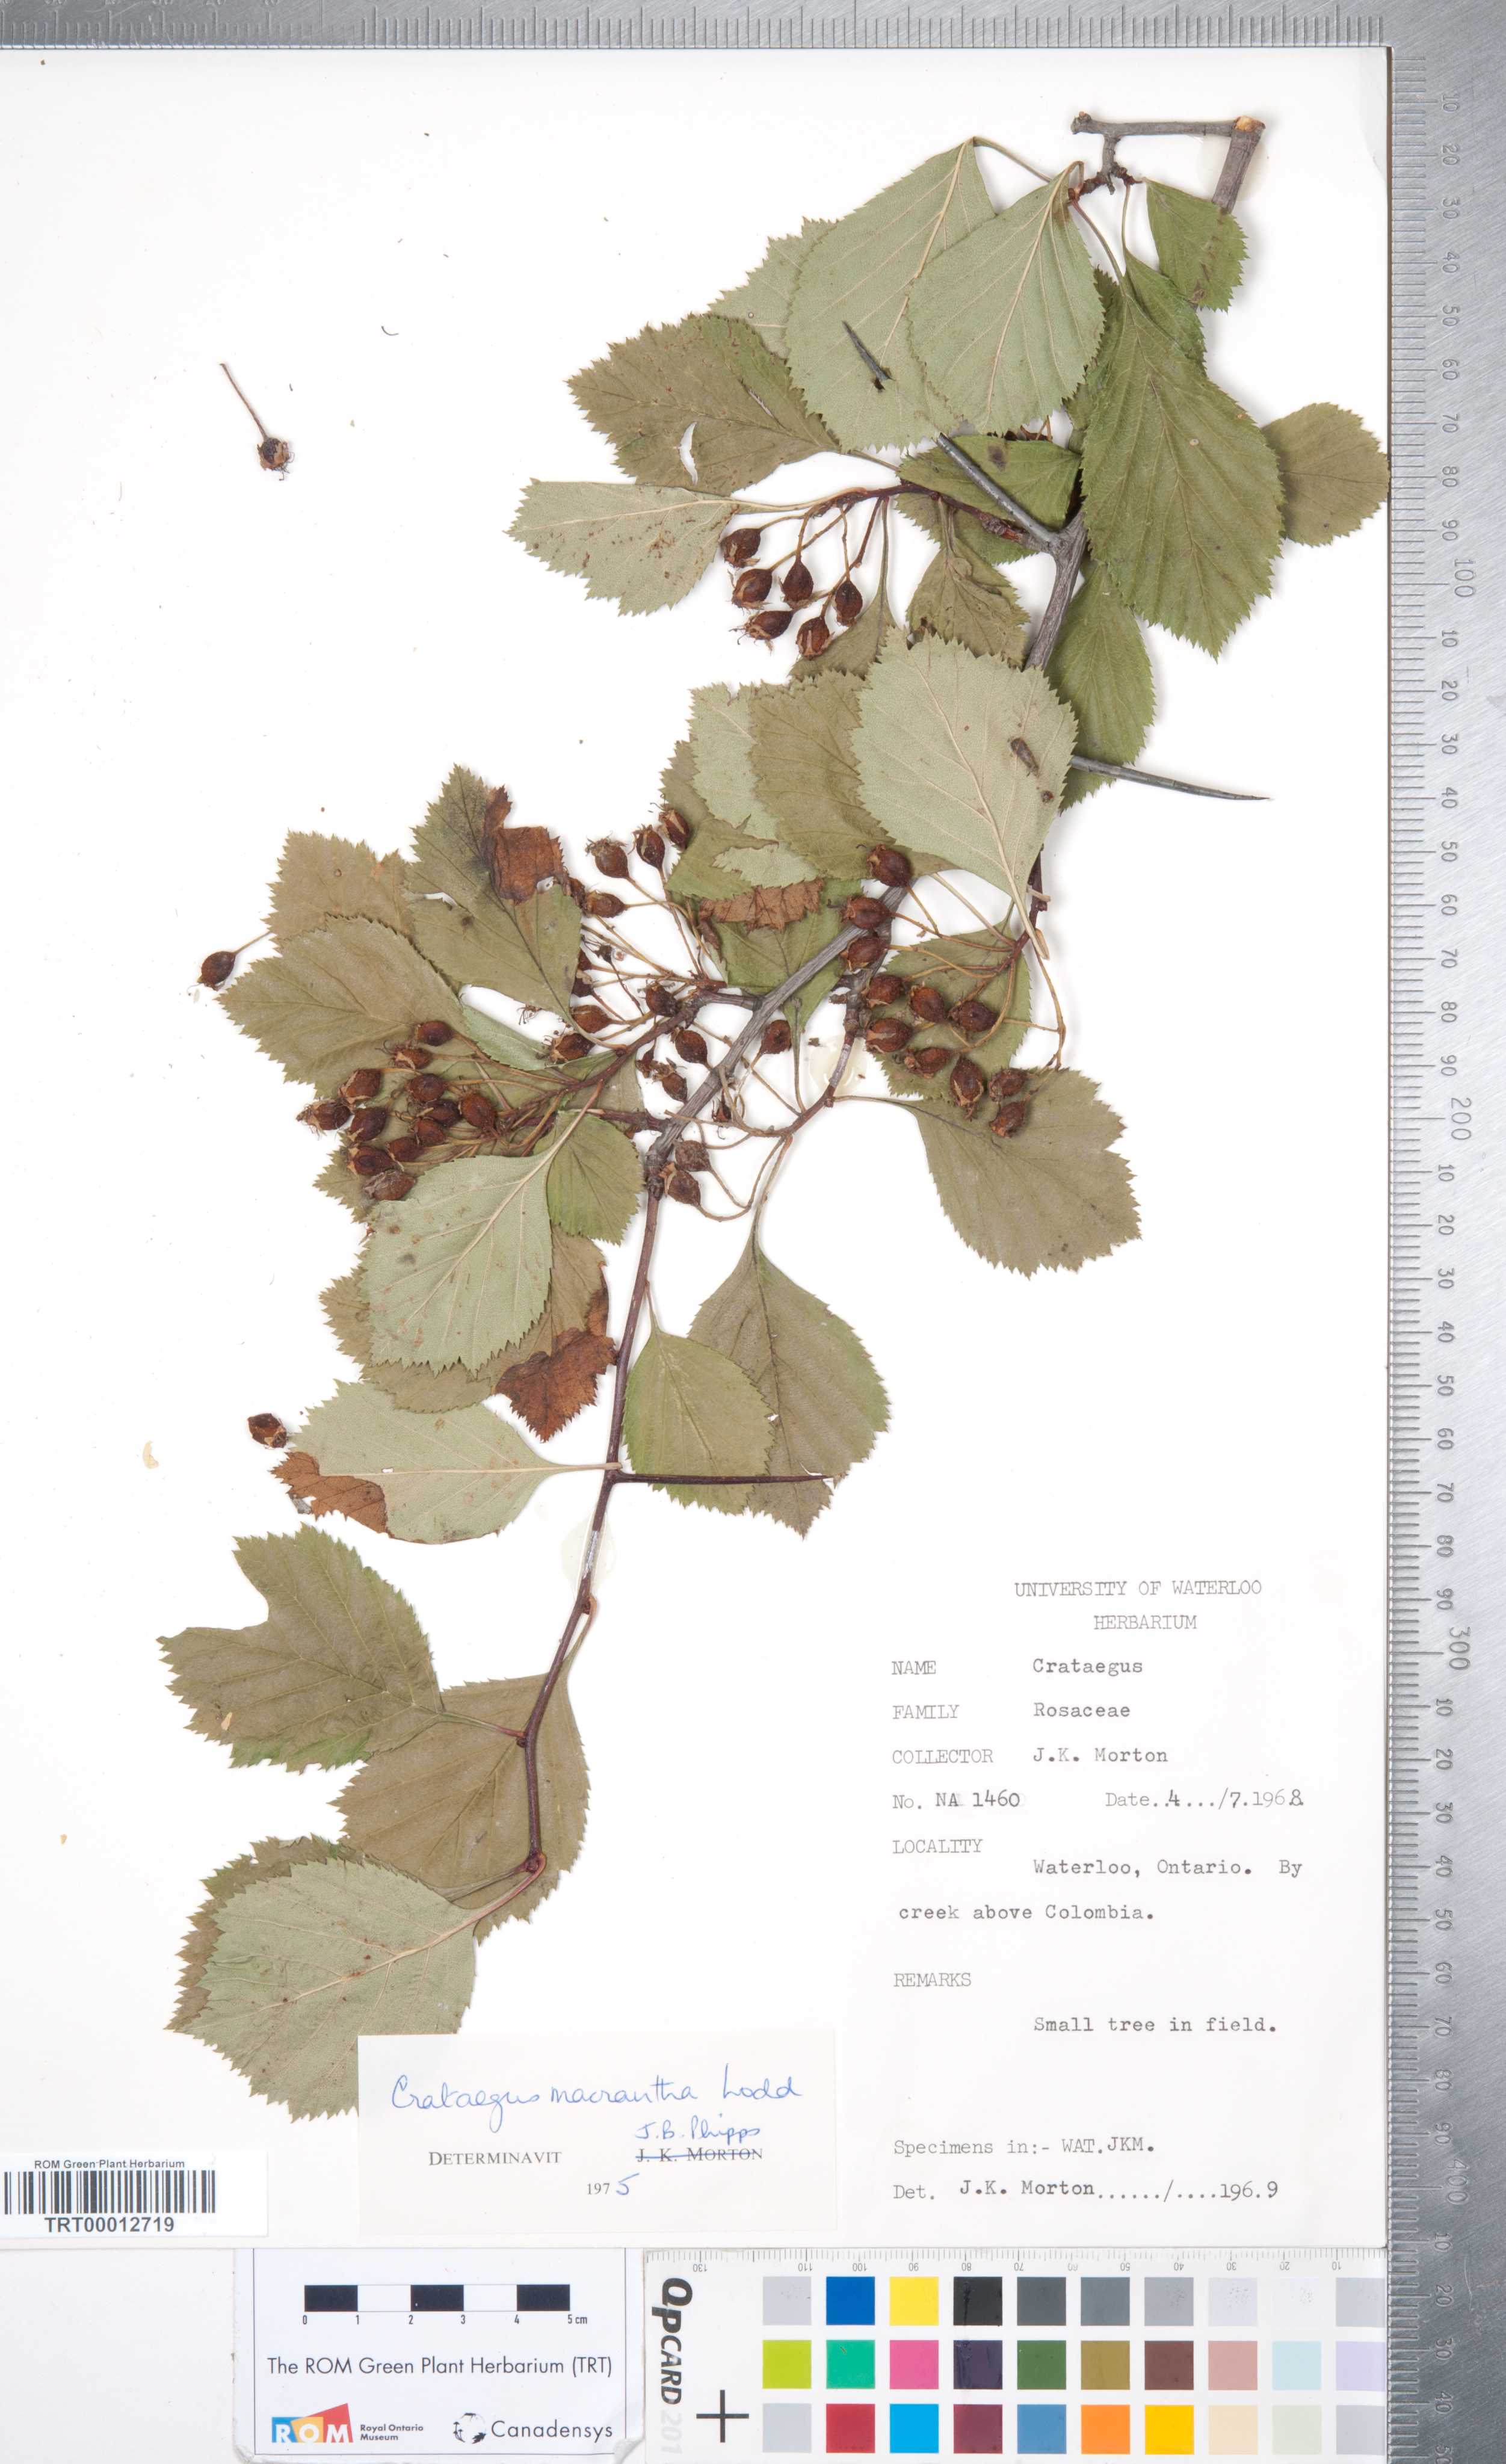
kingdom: Plantae
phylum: Tracheophyta
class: Magnoliopsida
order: Rosales
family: Rosaceae
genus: Crataegus
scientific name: Crataegus macracantha
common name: Large-thorn hawthorn
